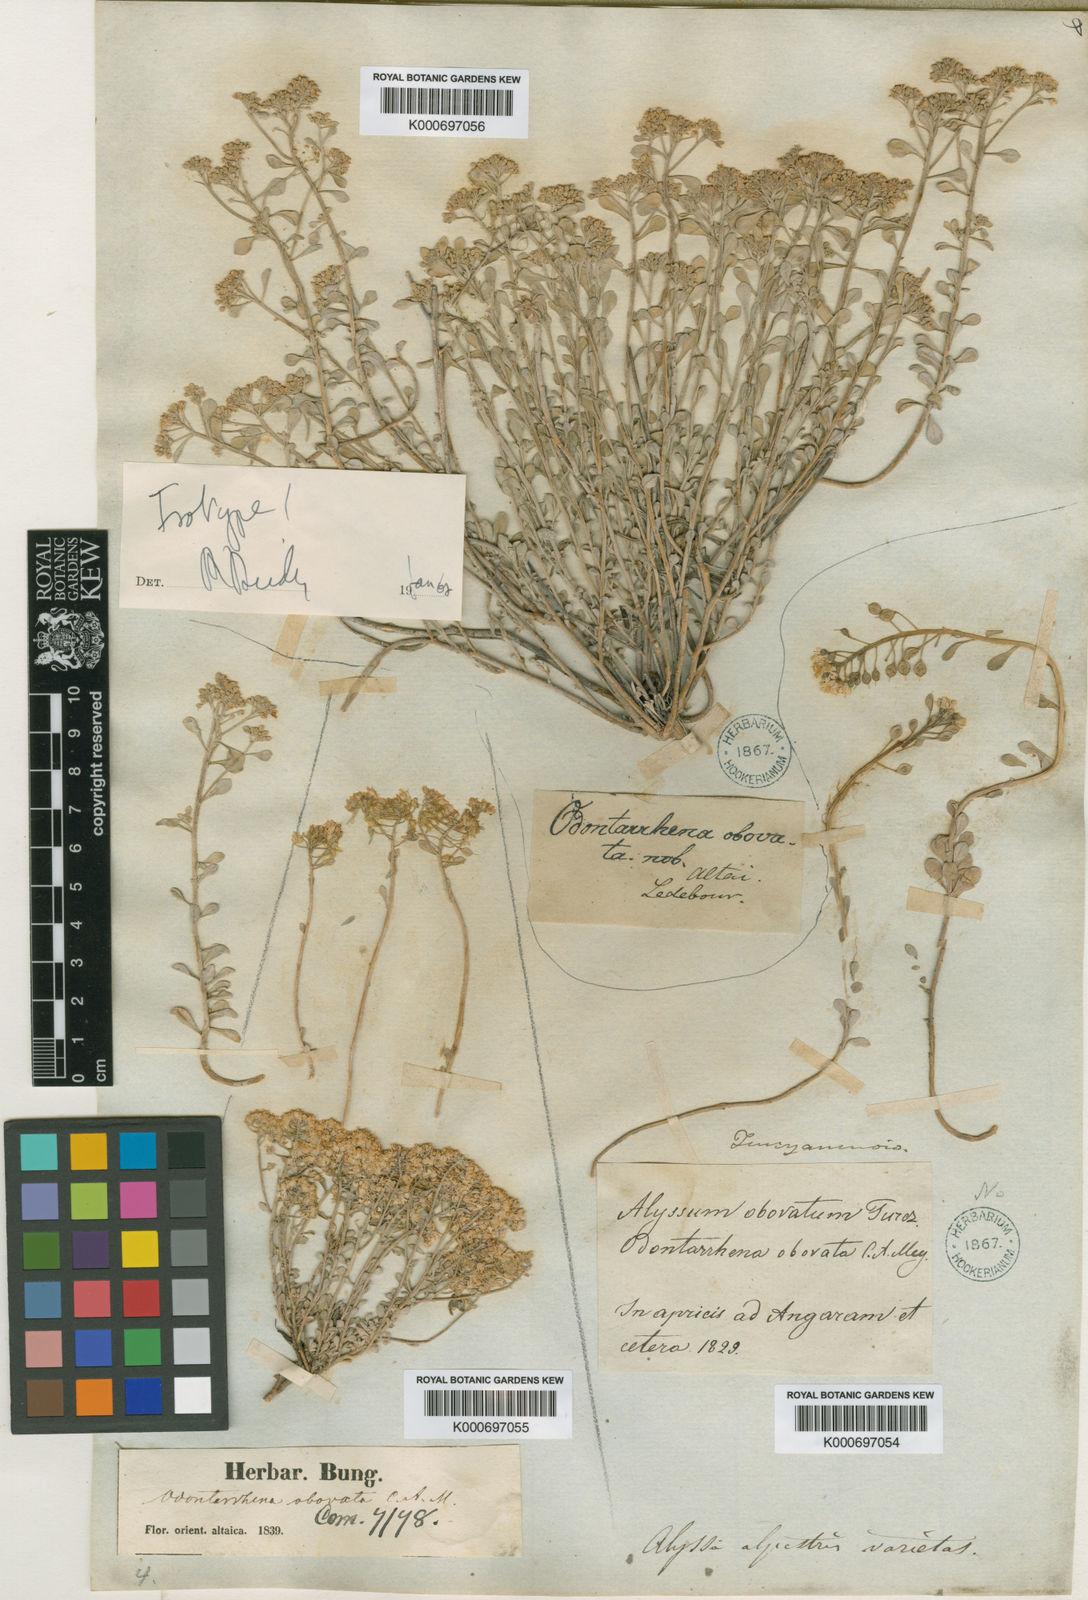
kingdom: Plantae
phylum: Tracheophyta
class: Magnoliopsida
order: Brassicales
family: Brassicaceae
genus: Odontarrhena
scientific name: Odontarrhena obovata
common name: American alyssum
